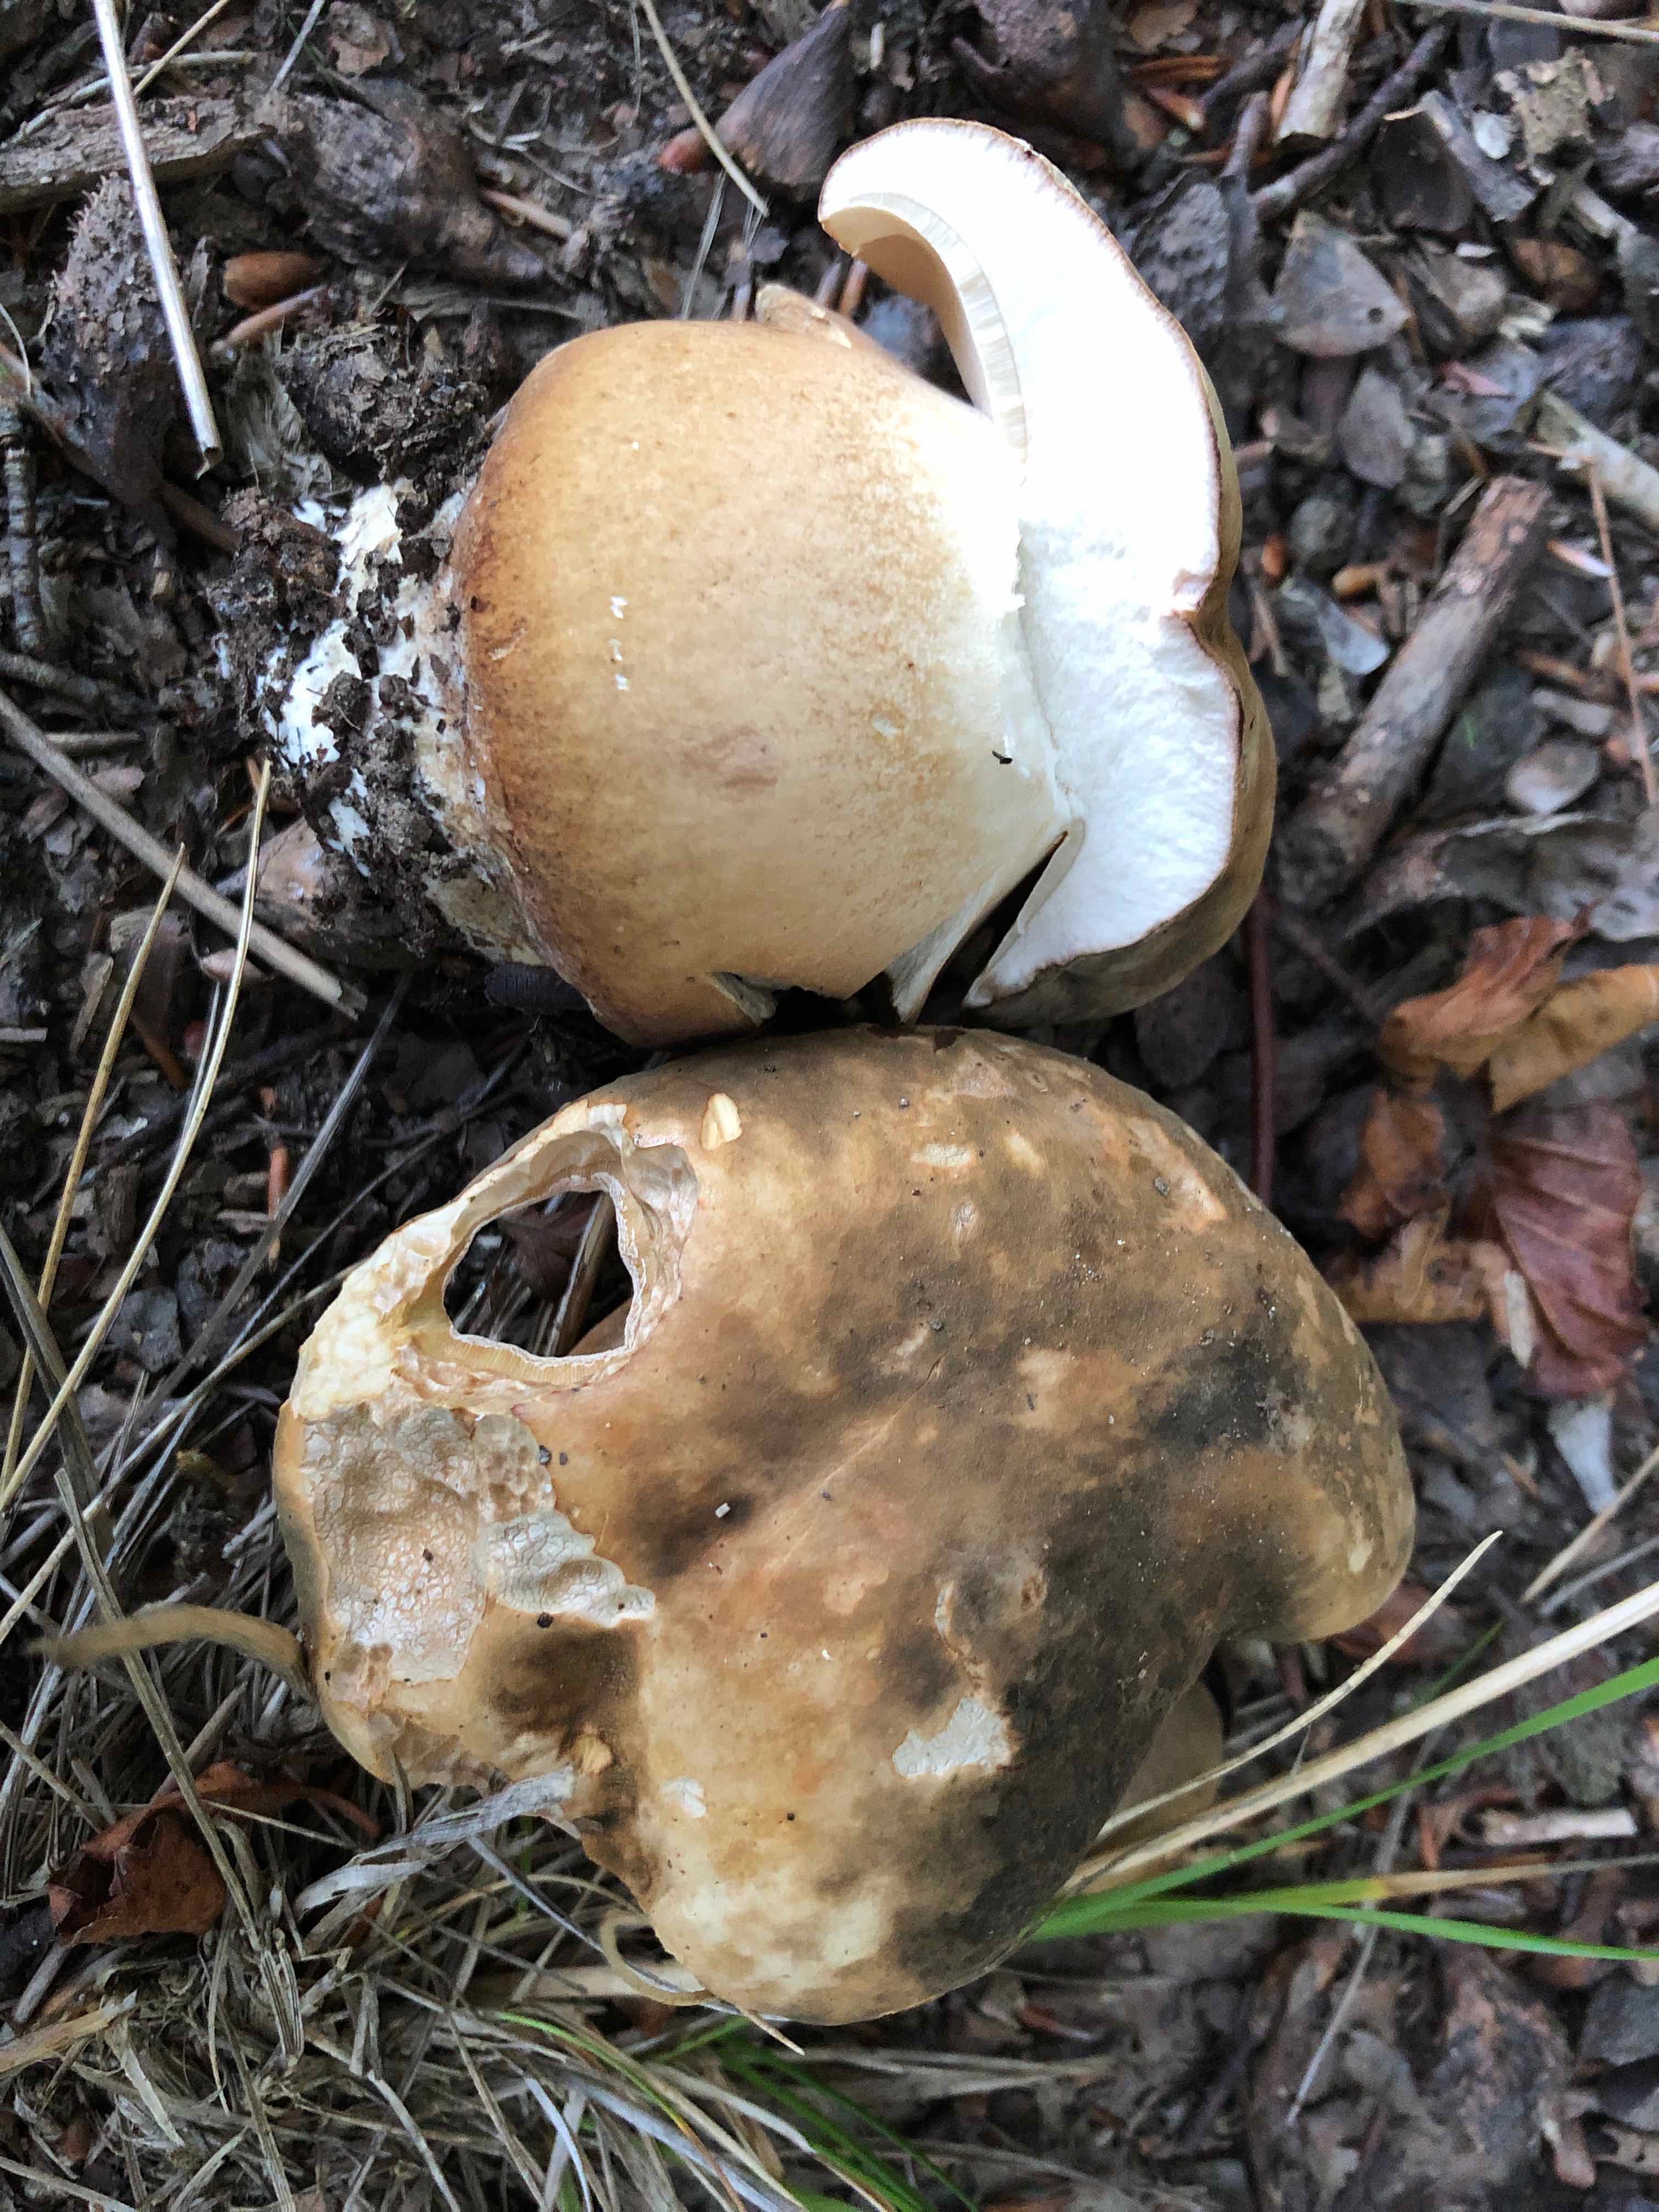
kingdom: Fungi
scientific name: Fungi
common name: bronze-rørhat
